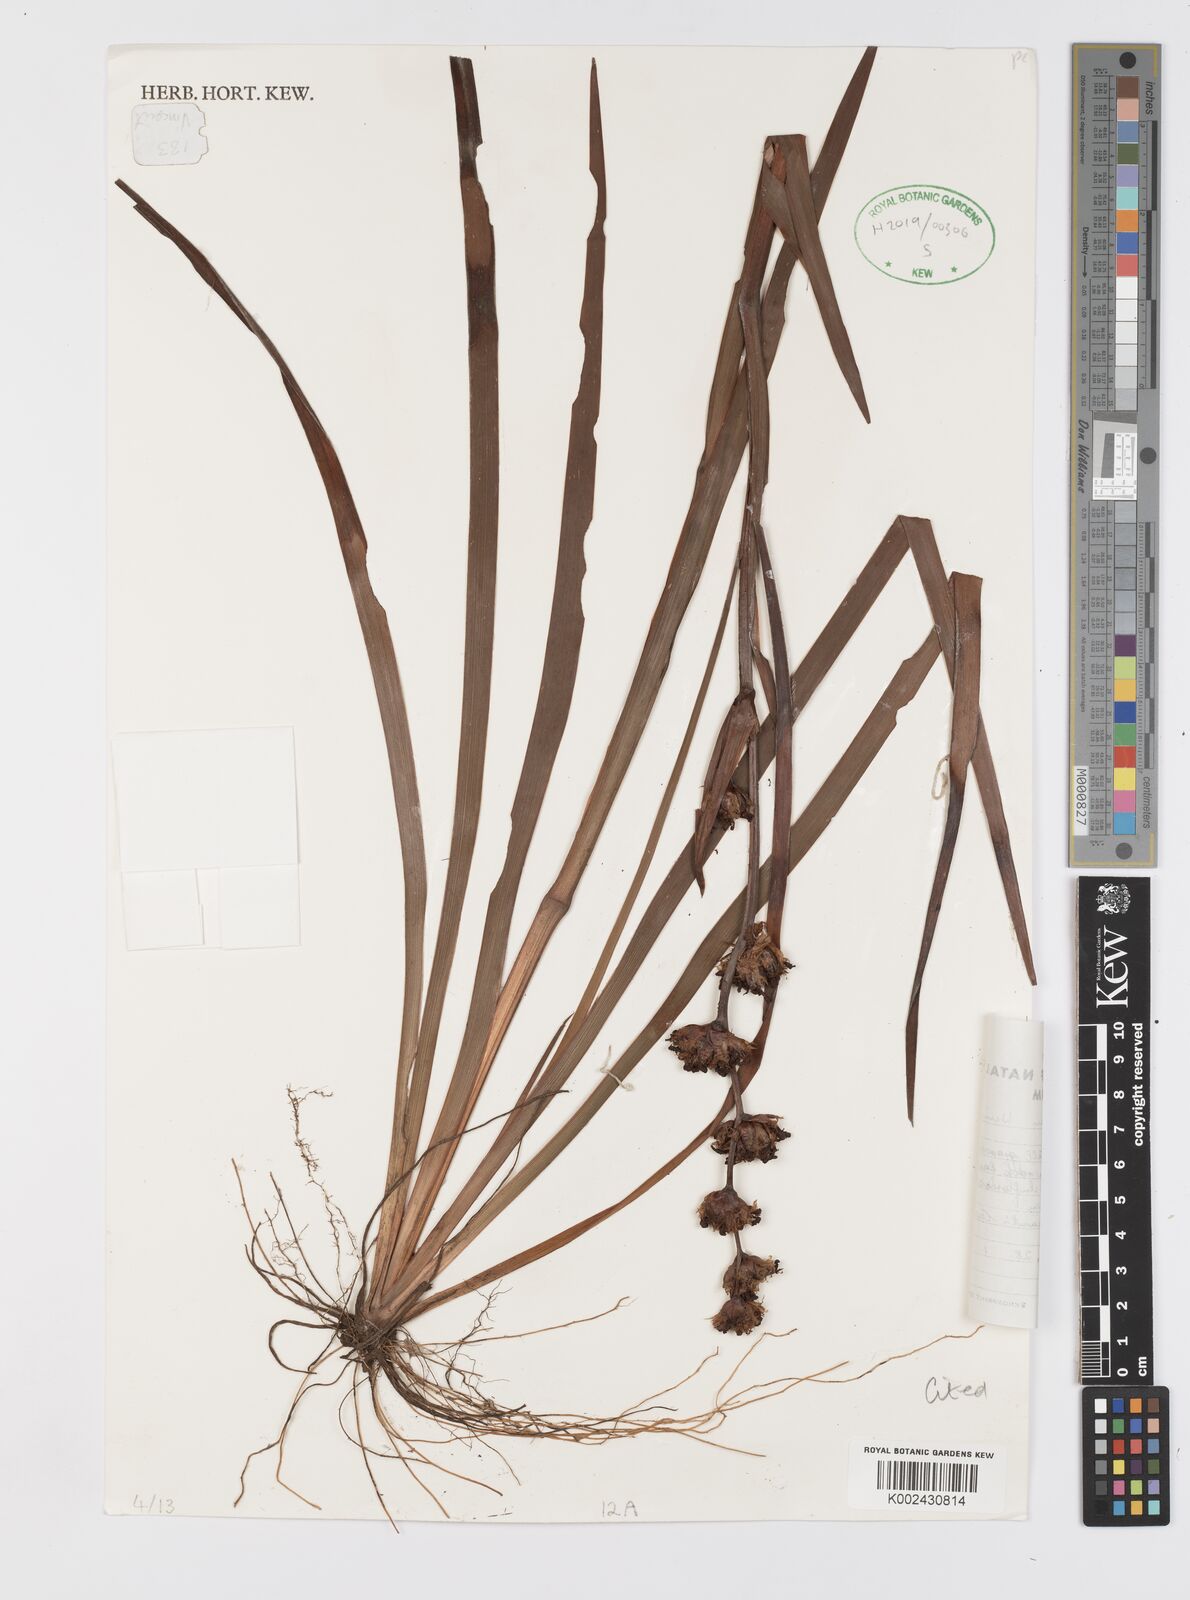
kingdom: Plantae
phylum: Tracheophyta
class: Liliopsida
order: Asparagales
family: Iridaceae
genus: Aristea
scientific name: Aristea grandis
